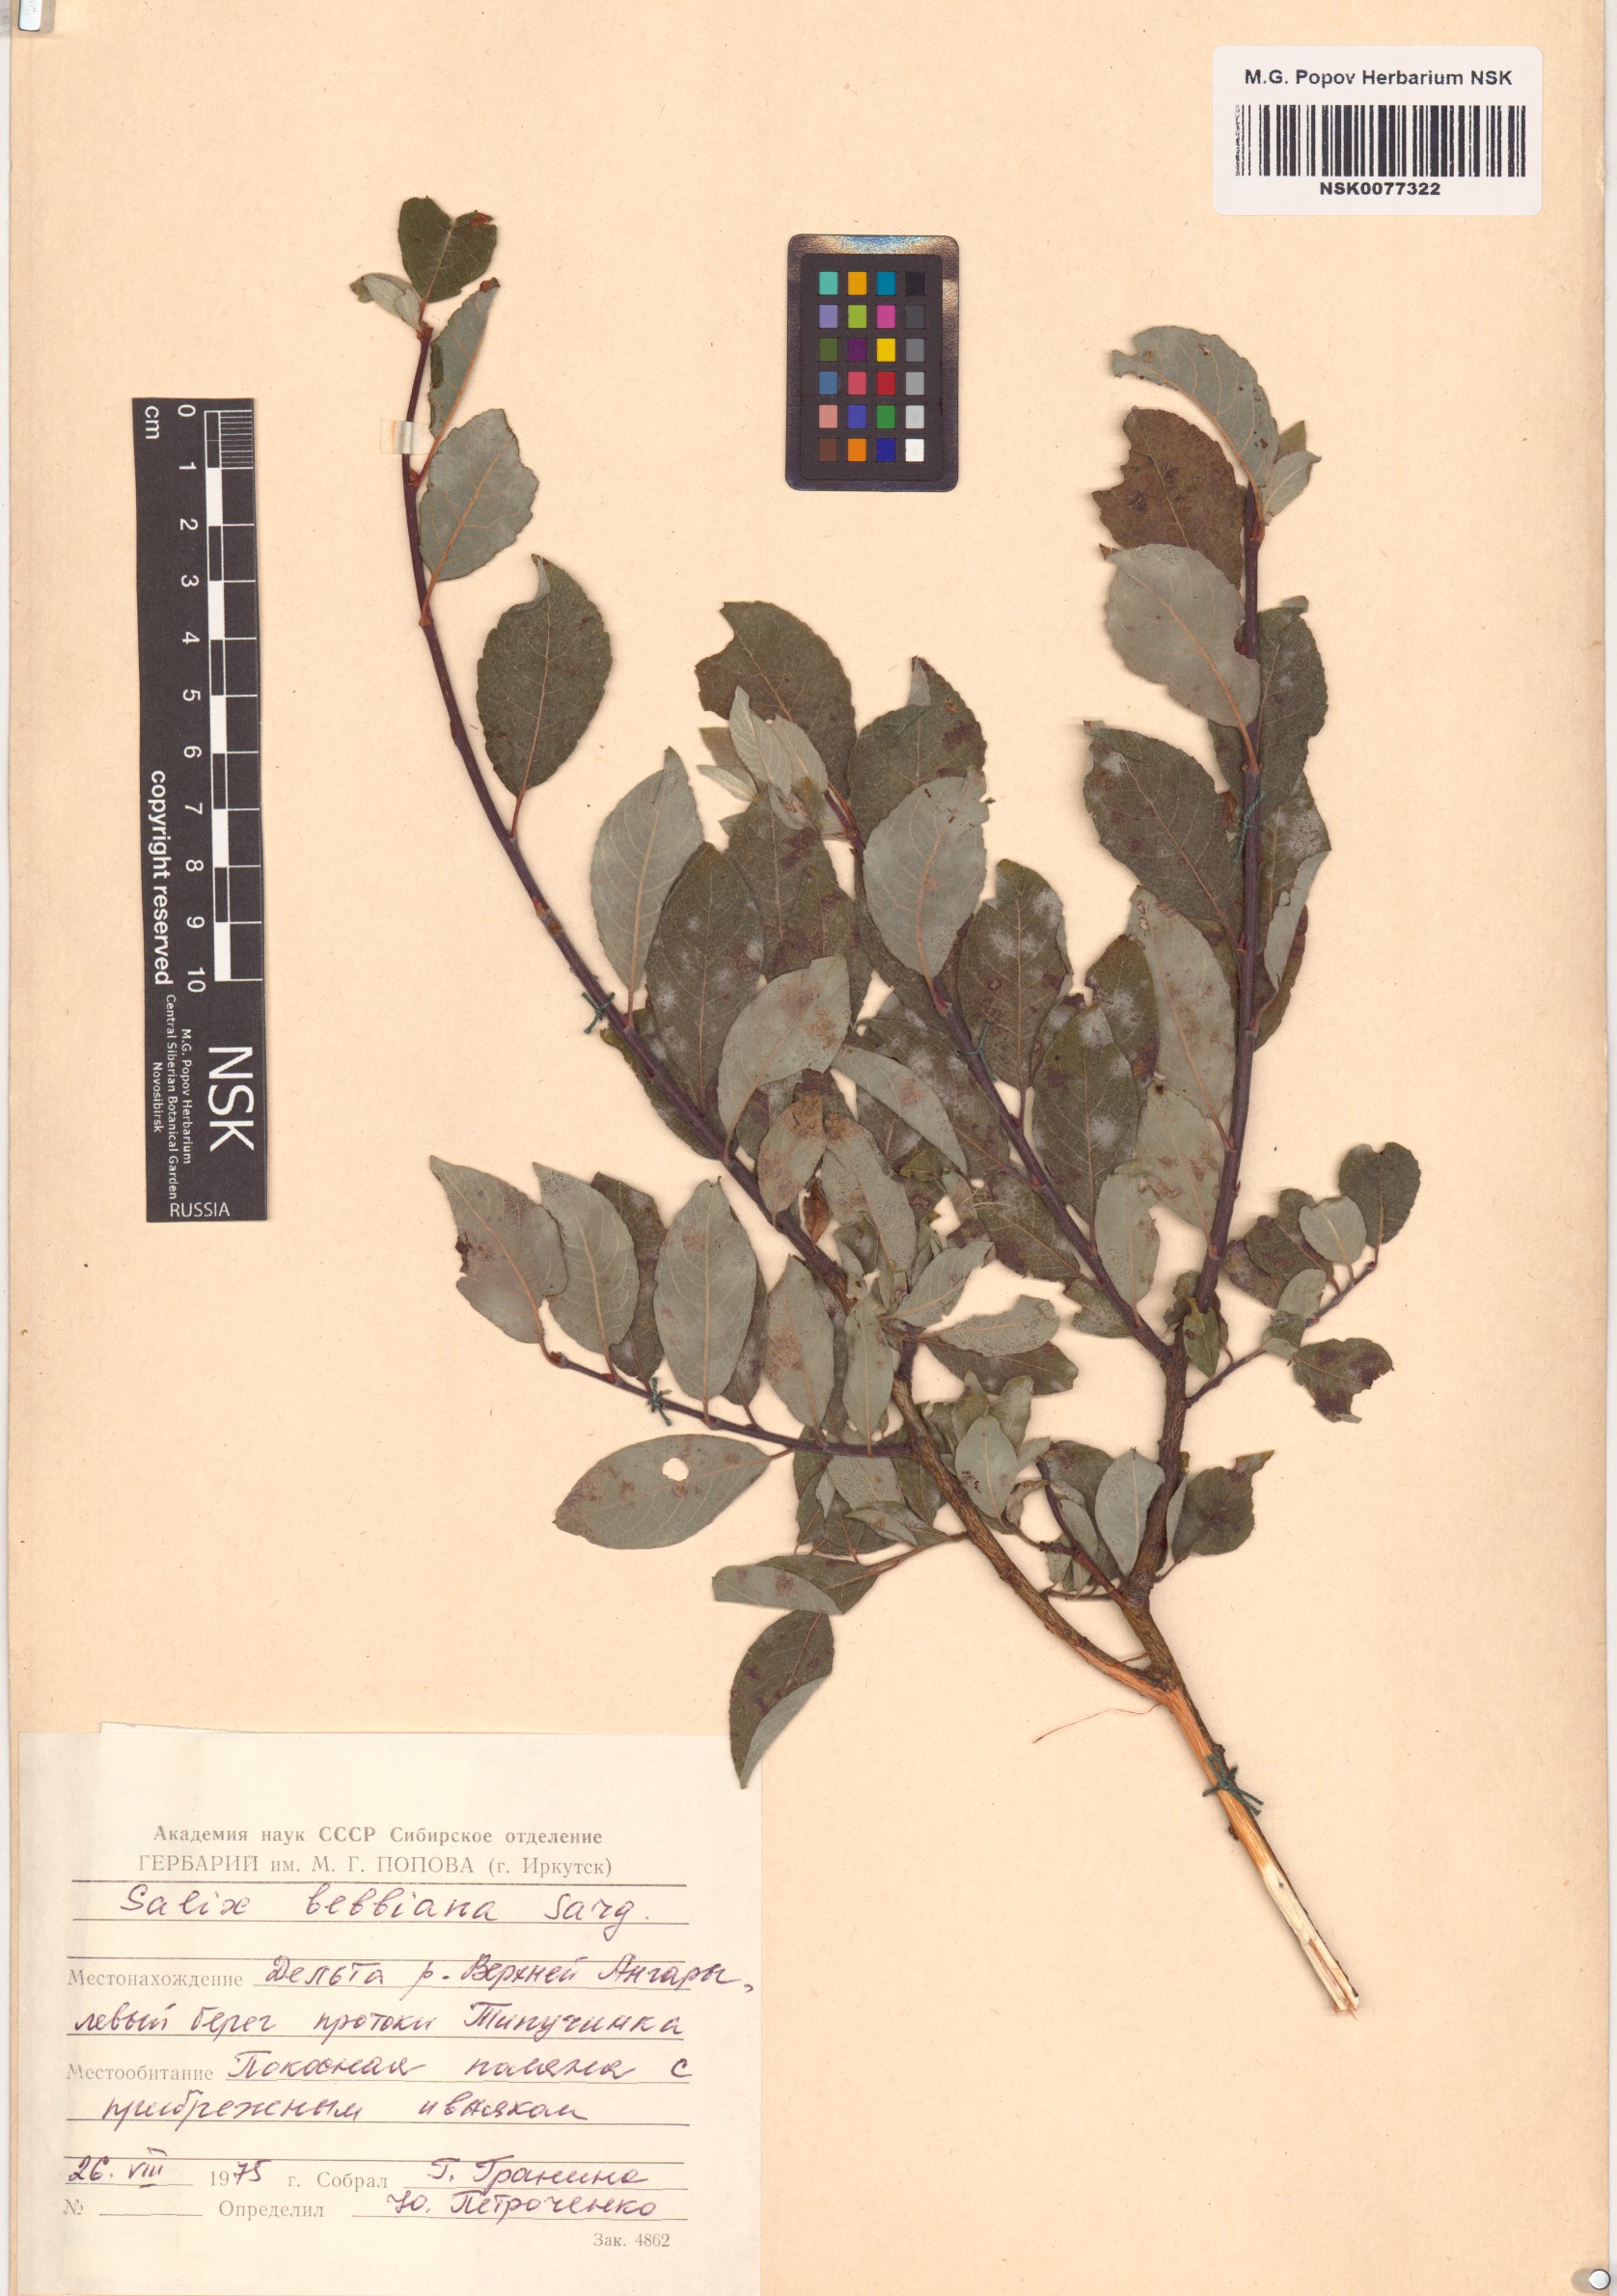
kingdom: Plantae
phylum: Tracheophyta
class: Magnoliopsida
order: Malpighiales
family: Salicaceae
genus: Salix
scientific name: Salix bebbiana
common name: Bebb's willow
